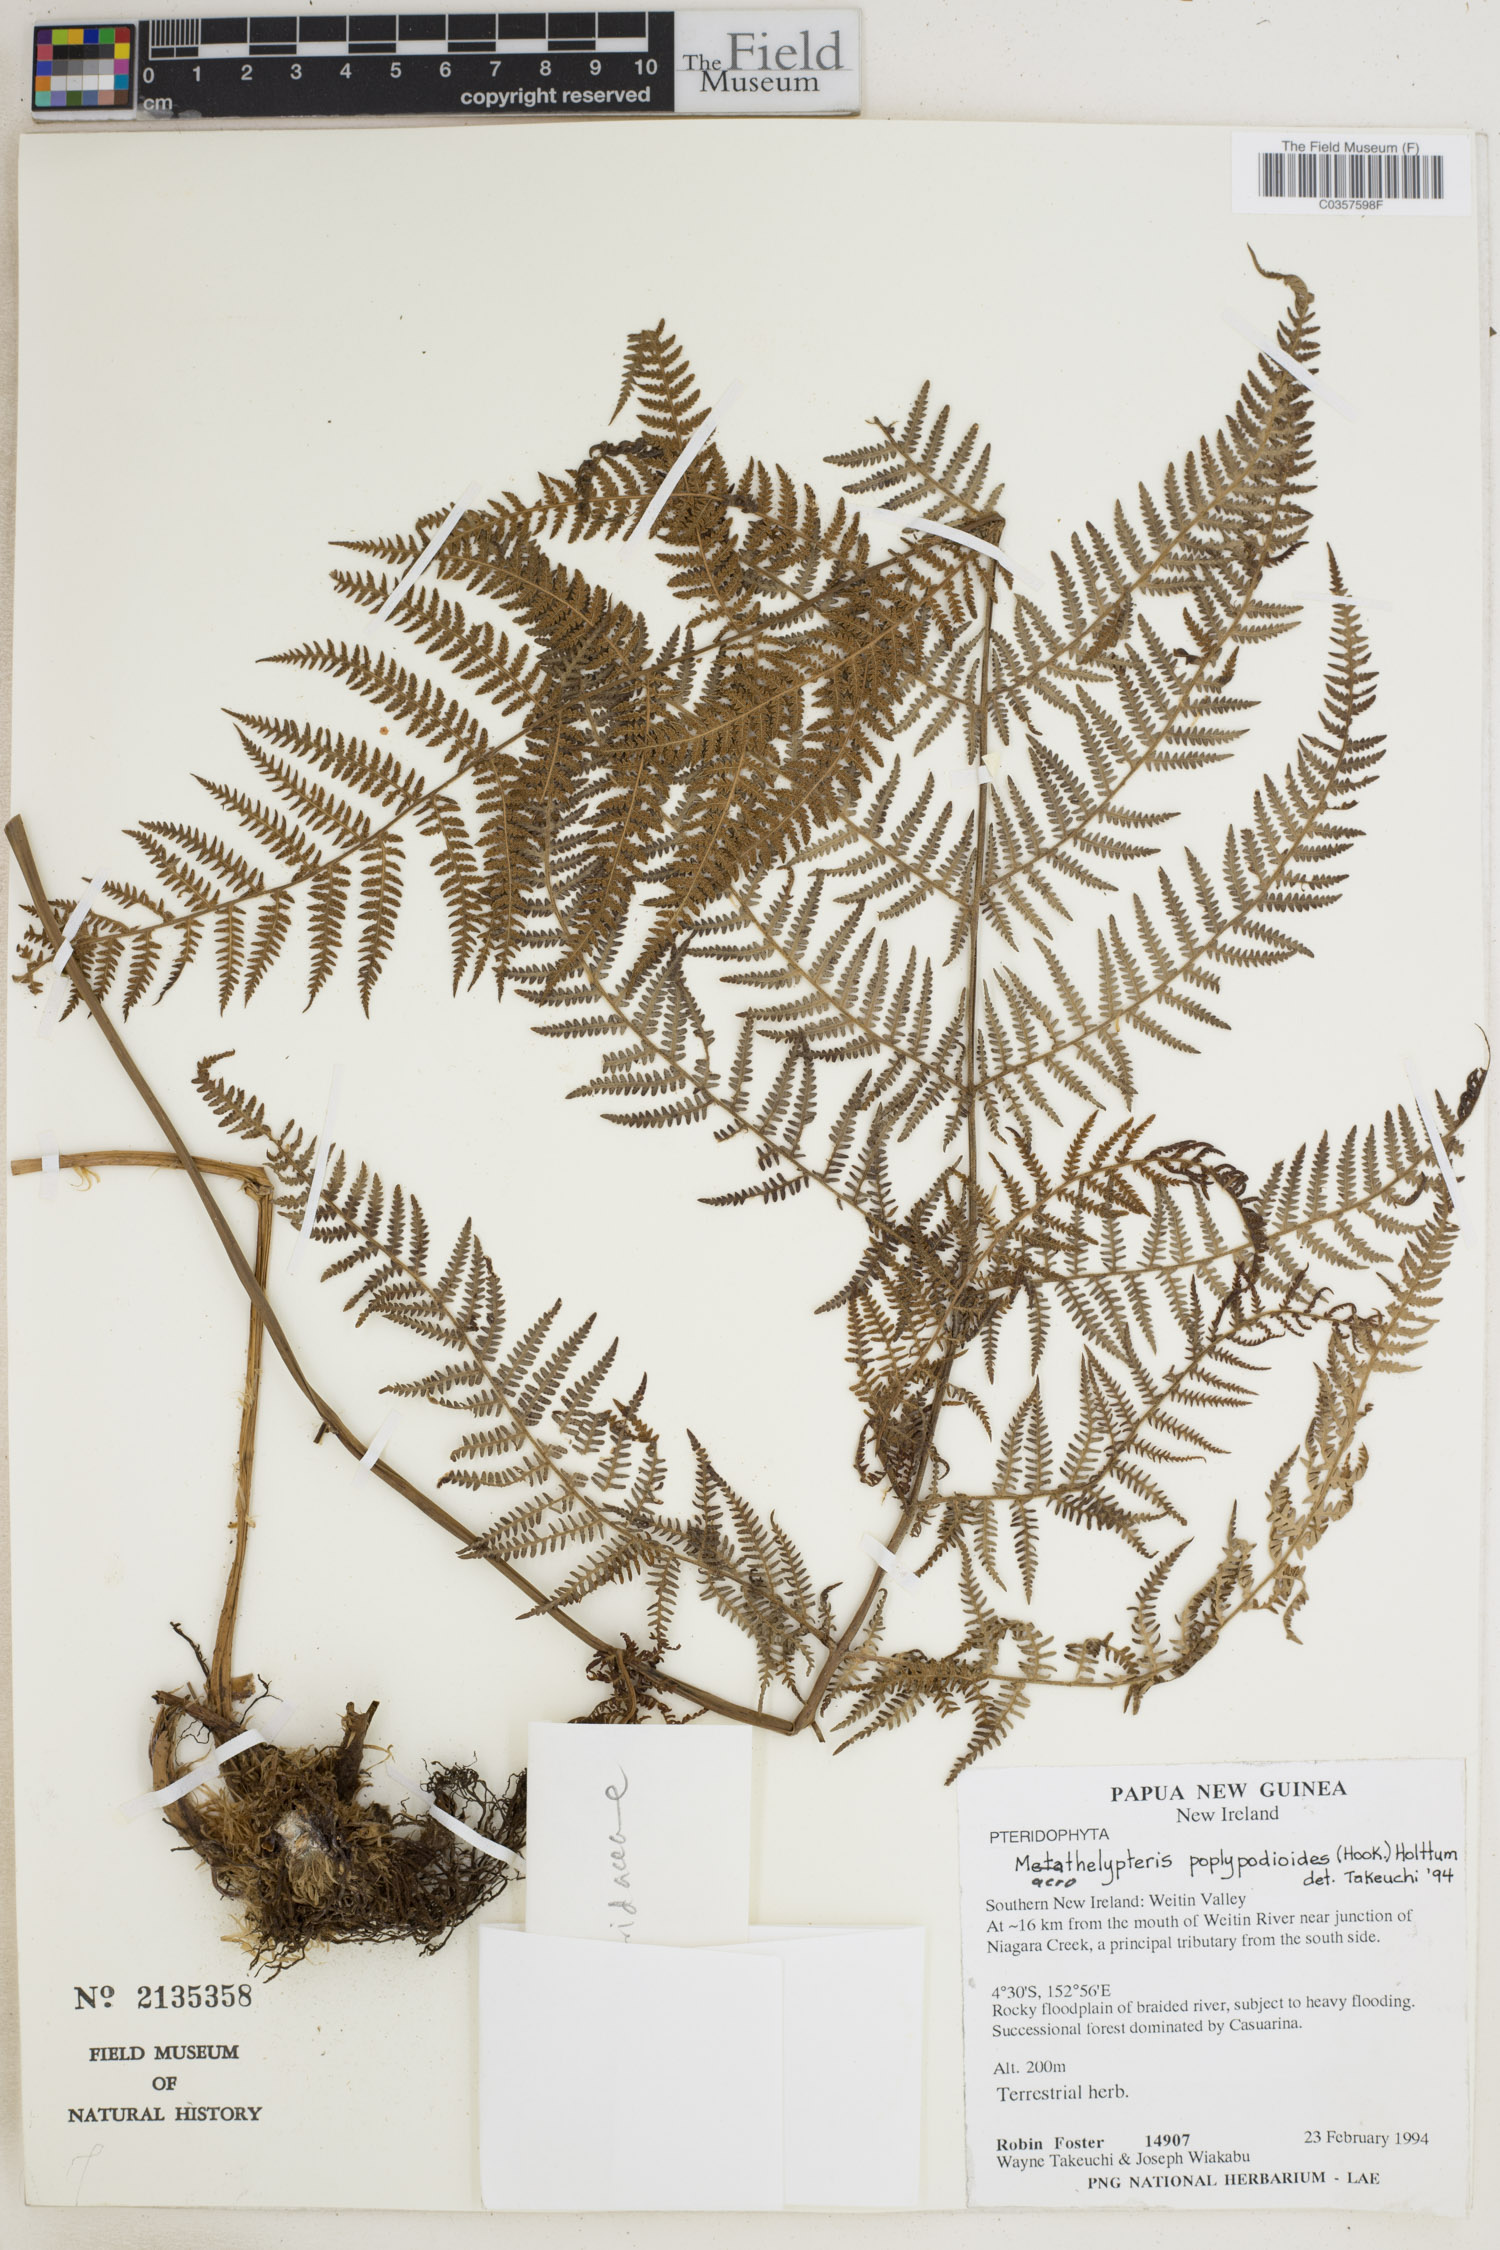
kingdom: Plantae
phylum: Tracheophyta
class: Polypodiopsida
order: Polypodiales
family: Thelypteridaceae
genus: Macrothelypteris
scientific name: Macrothelypteris polypodioides
